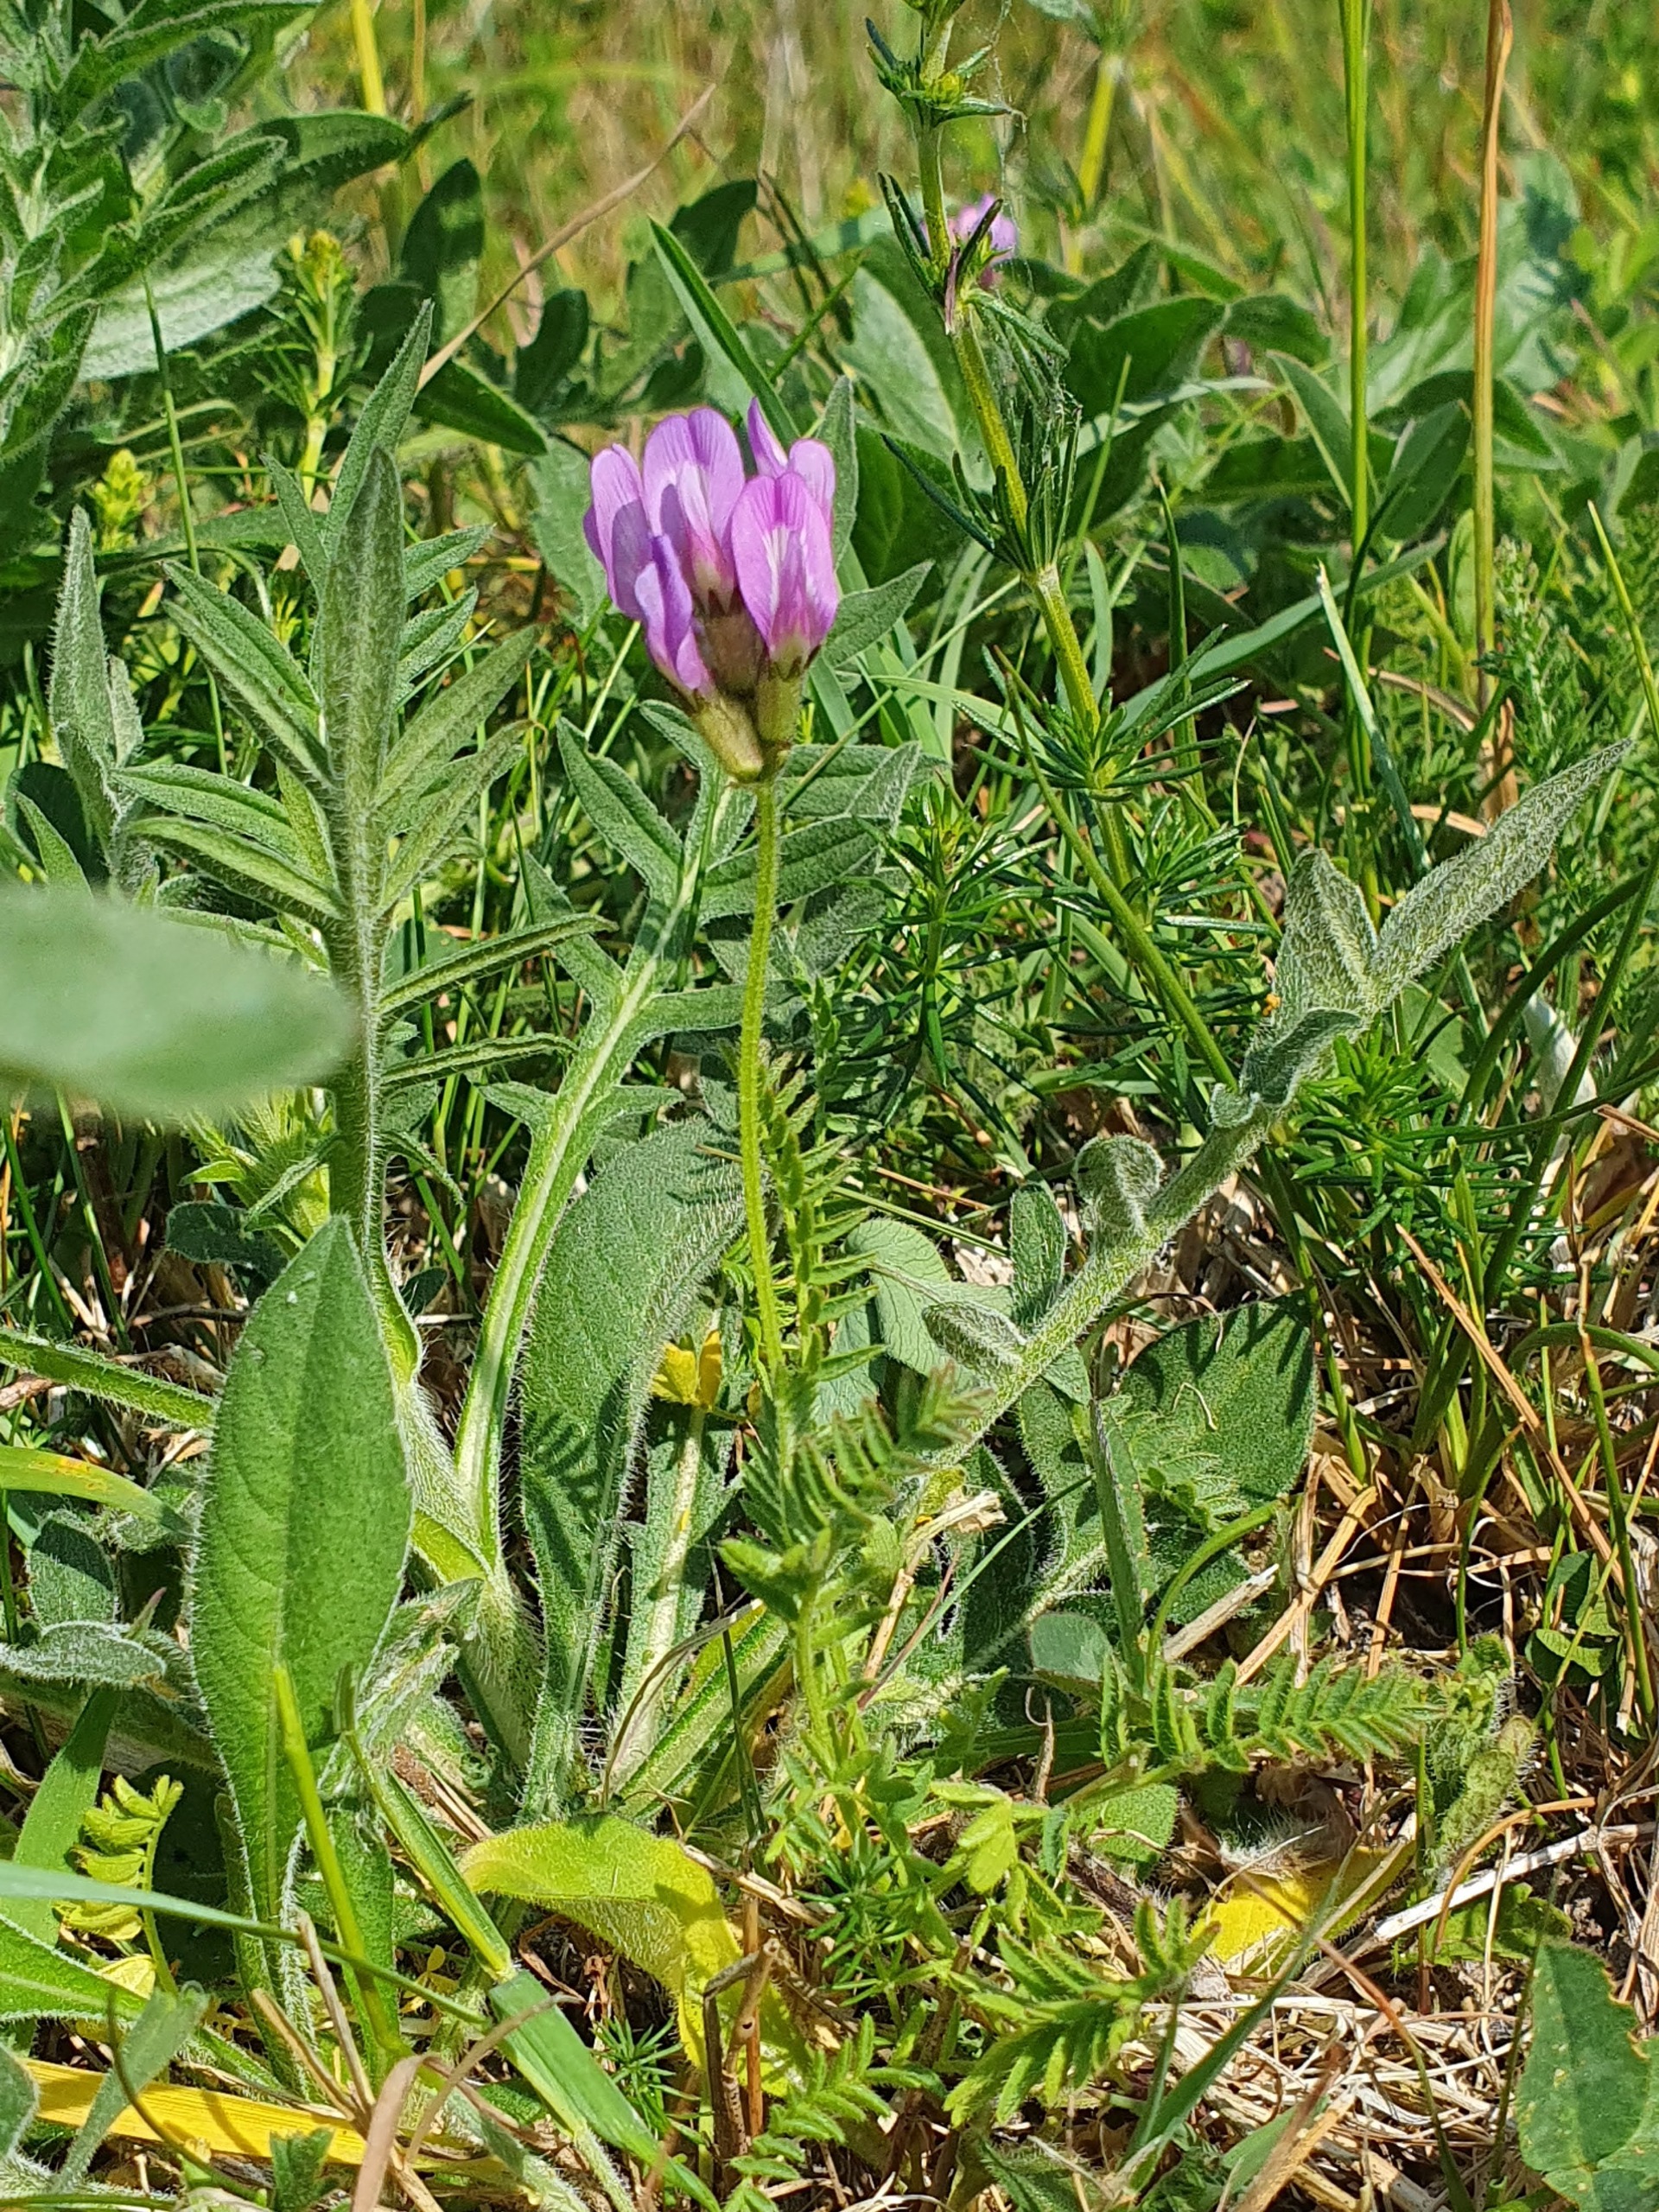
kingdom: Plantae
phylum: Tracheophyta
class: Magnoliopsida
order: Fabales
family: Fabaceae
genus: Astragalus
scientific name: Astragalus danicus
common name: Dansk astragel
